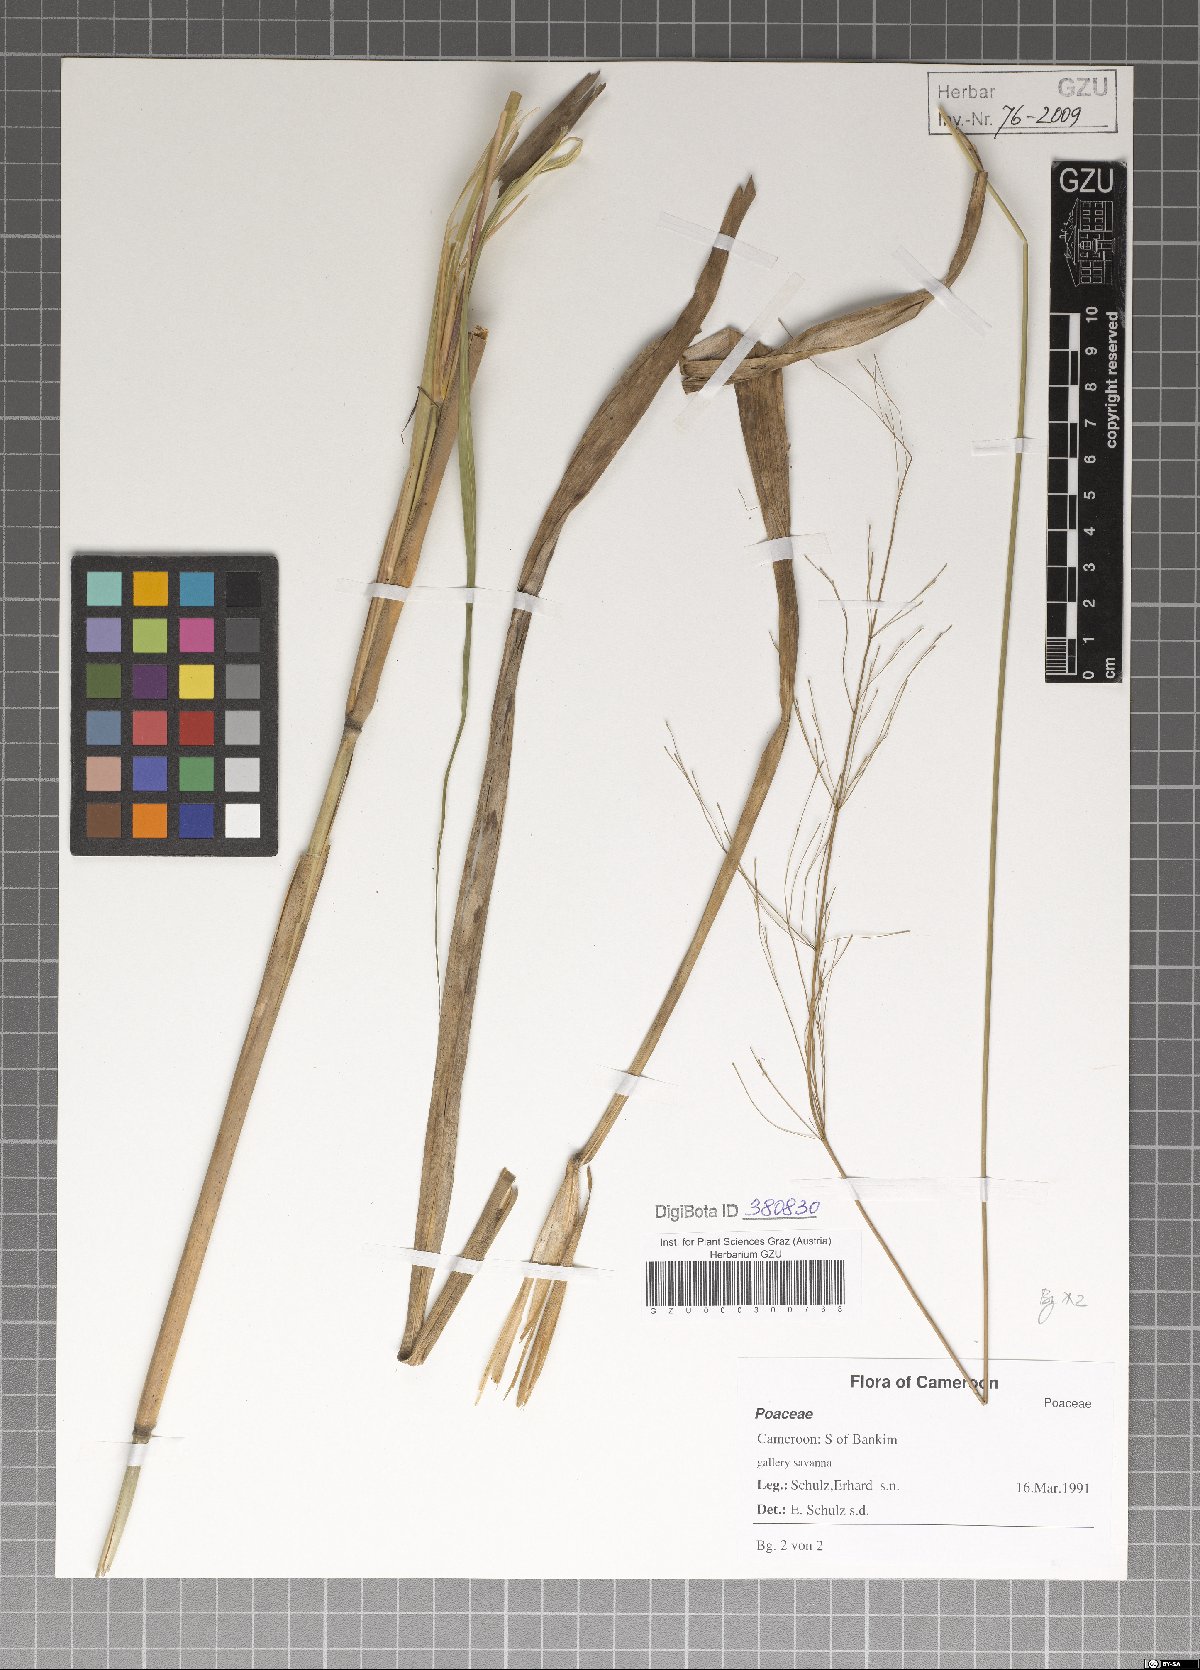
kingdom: Plantae
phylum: Tracheophyta
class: Liliopsida
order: Poales
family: Poaceae
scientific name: Poaceae
